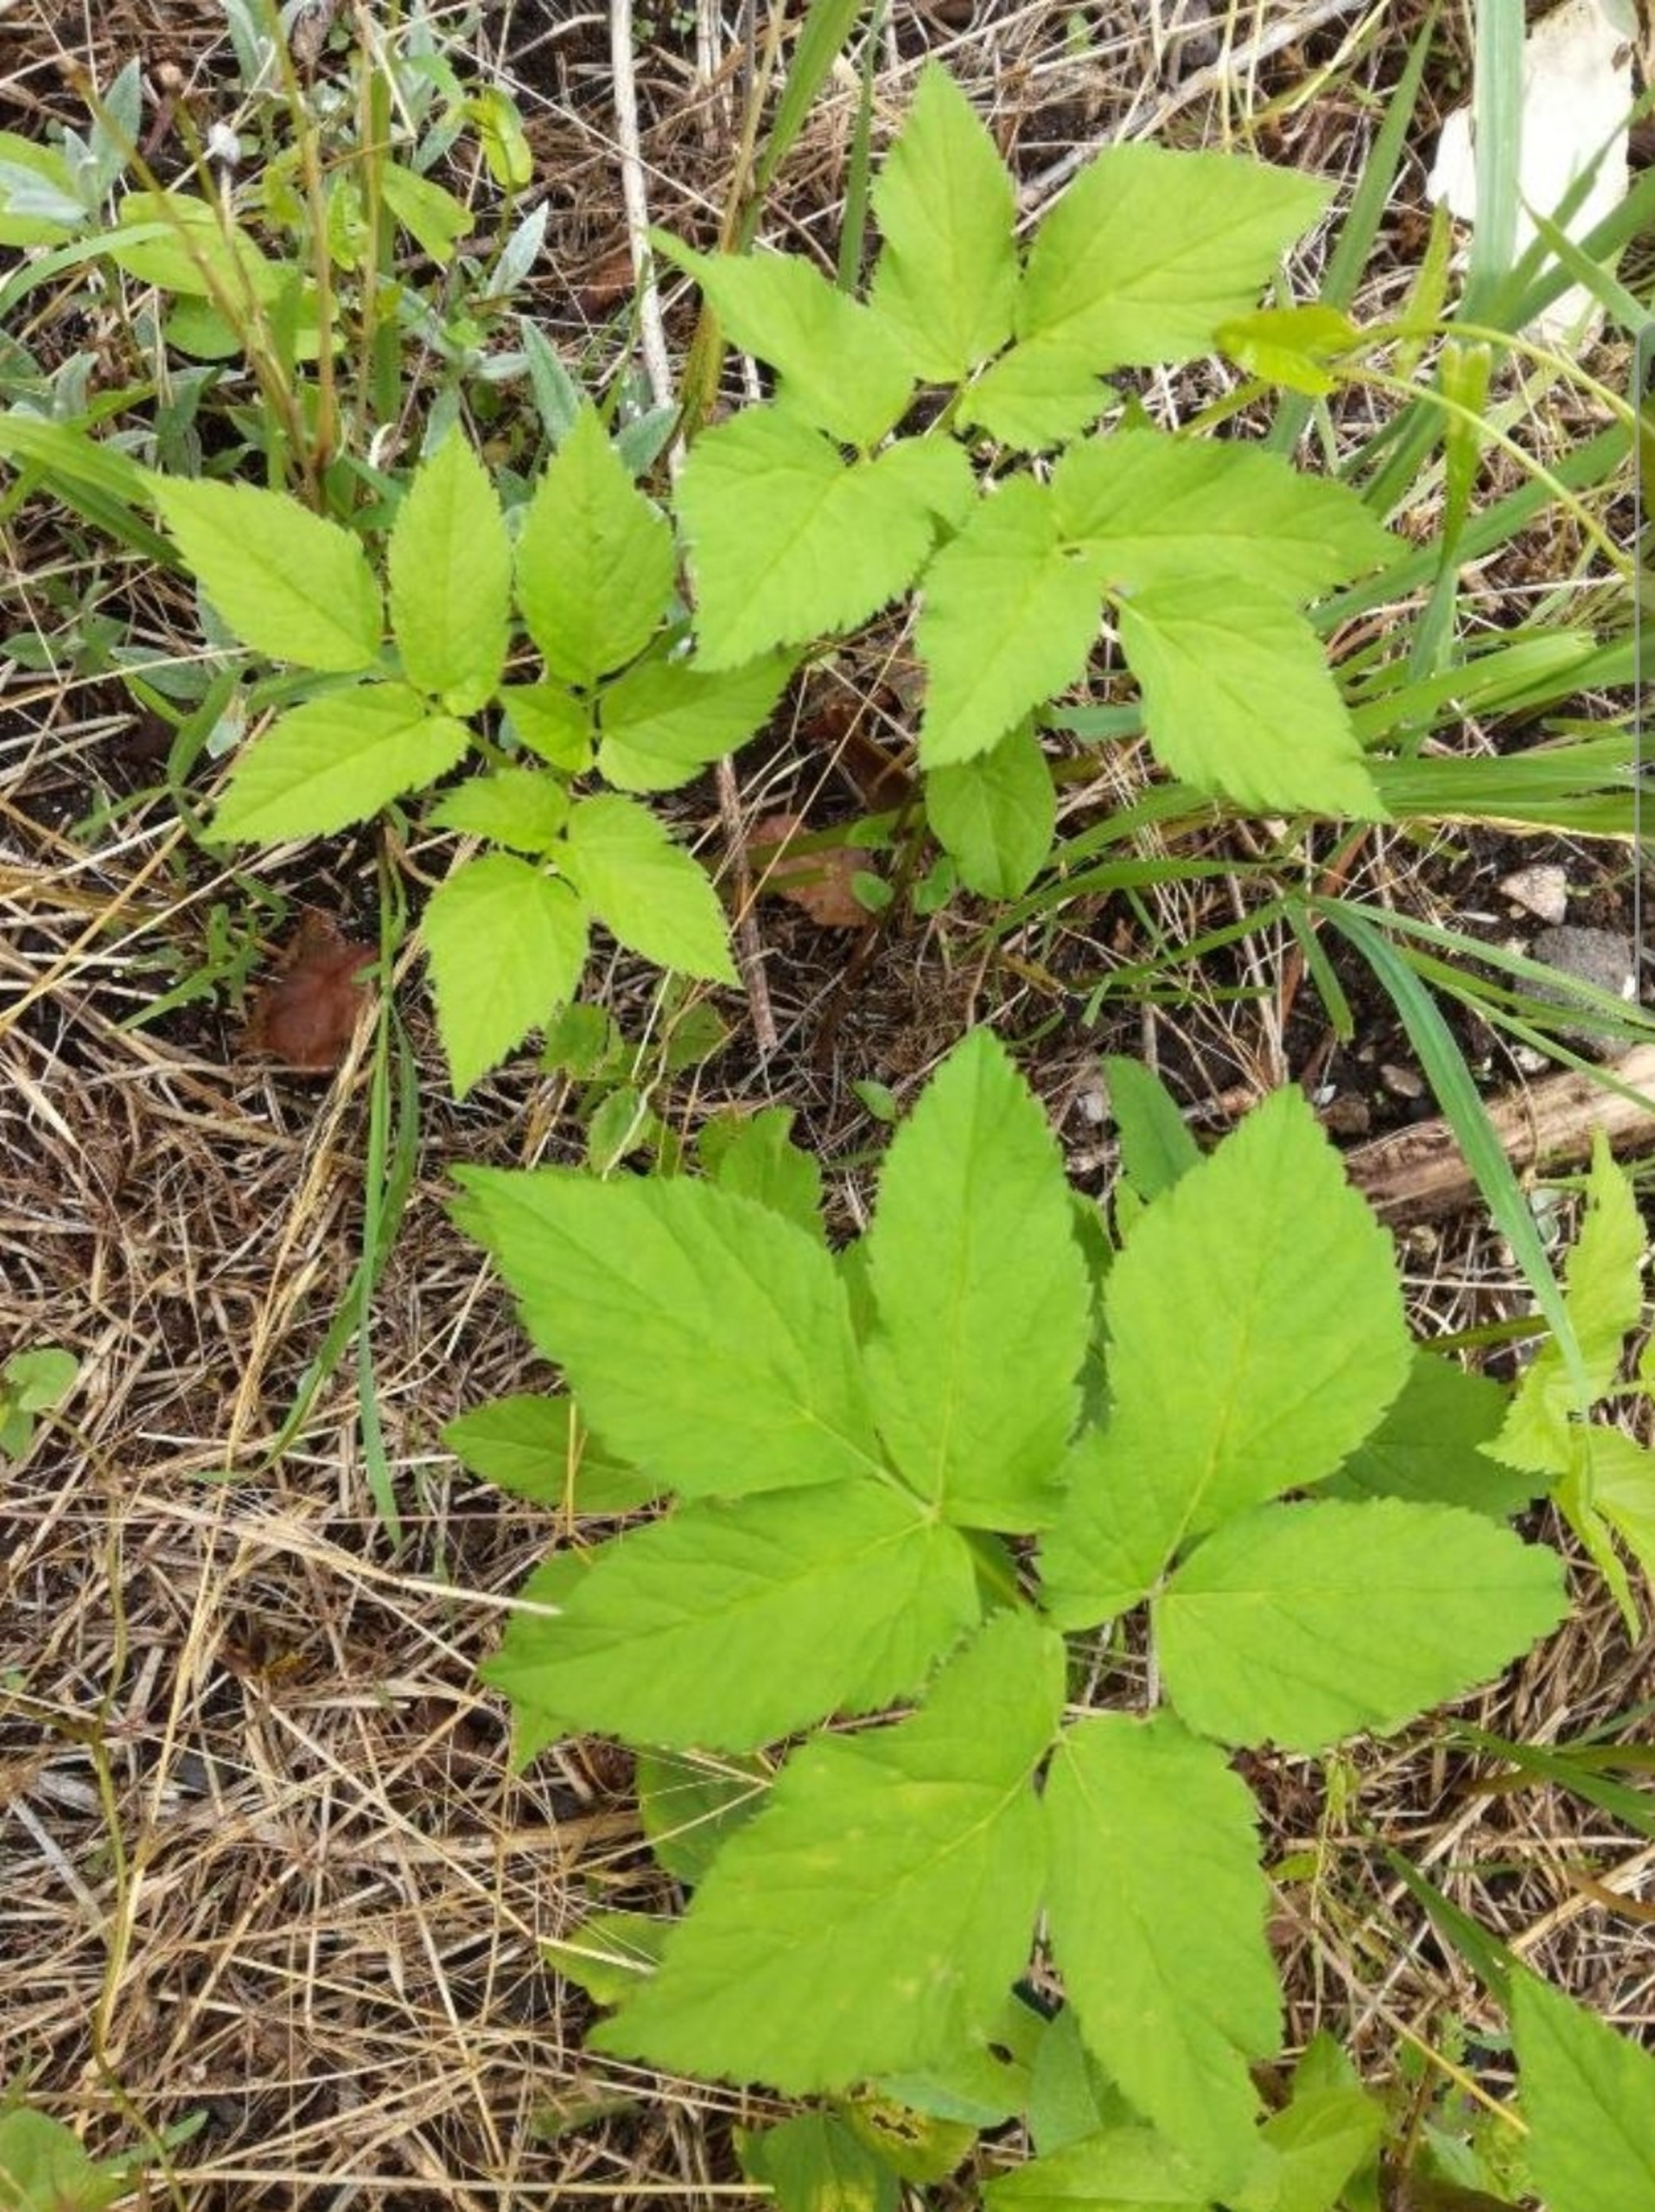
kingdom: Plantae
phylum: Tracheophyta
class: Magnoliopsida
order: Apiales
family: Apiaceae
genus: Aegopodium
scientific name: Aegopodium podagraria
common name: Skvalderkål
